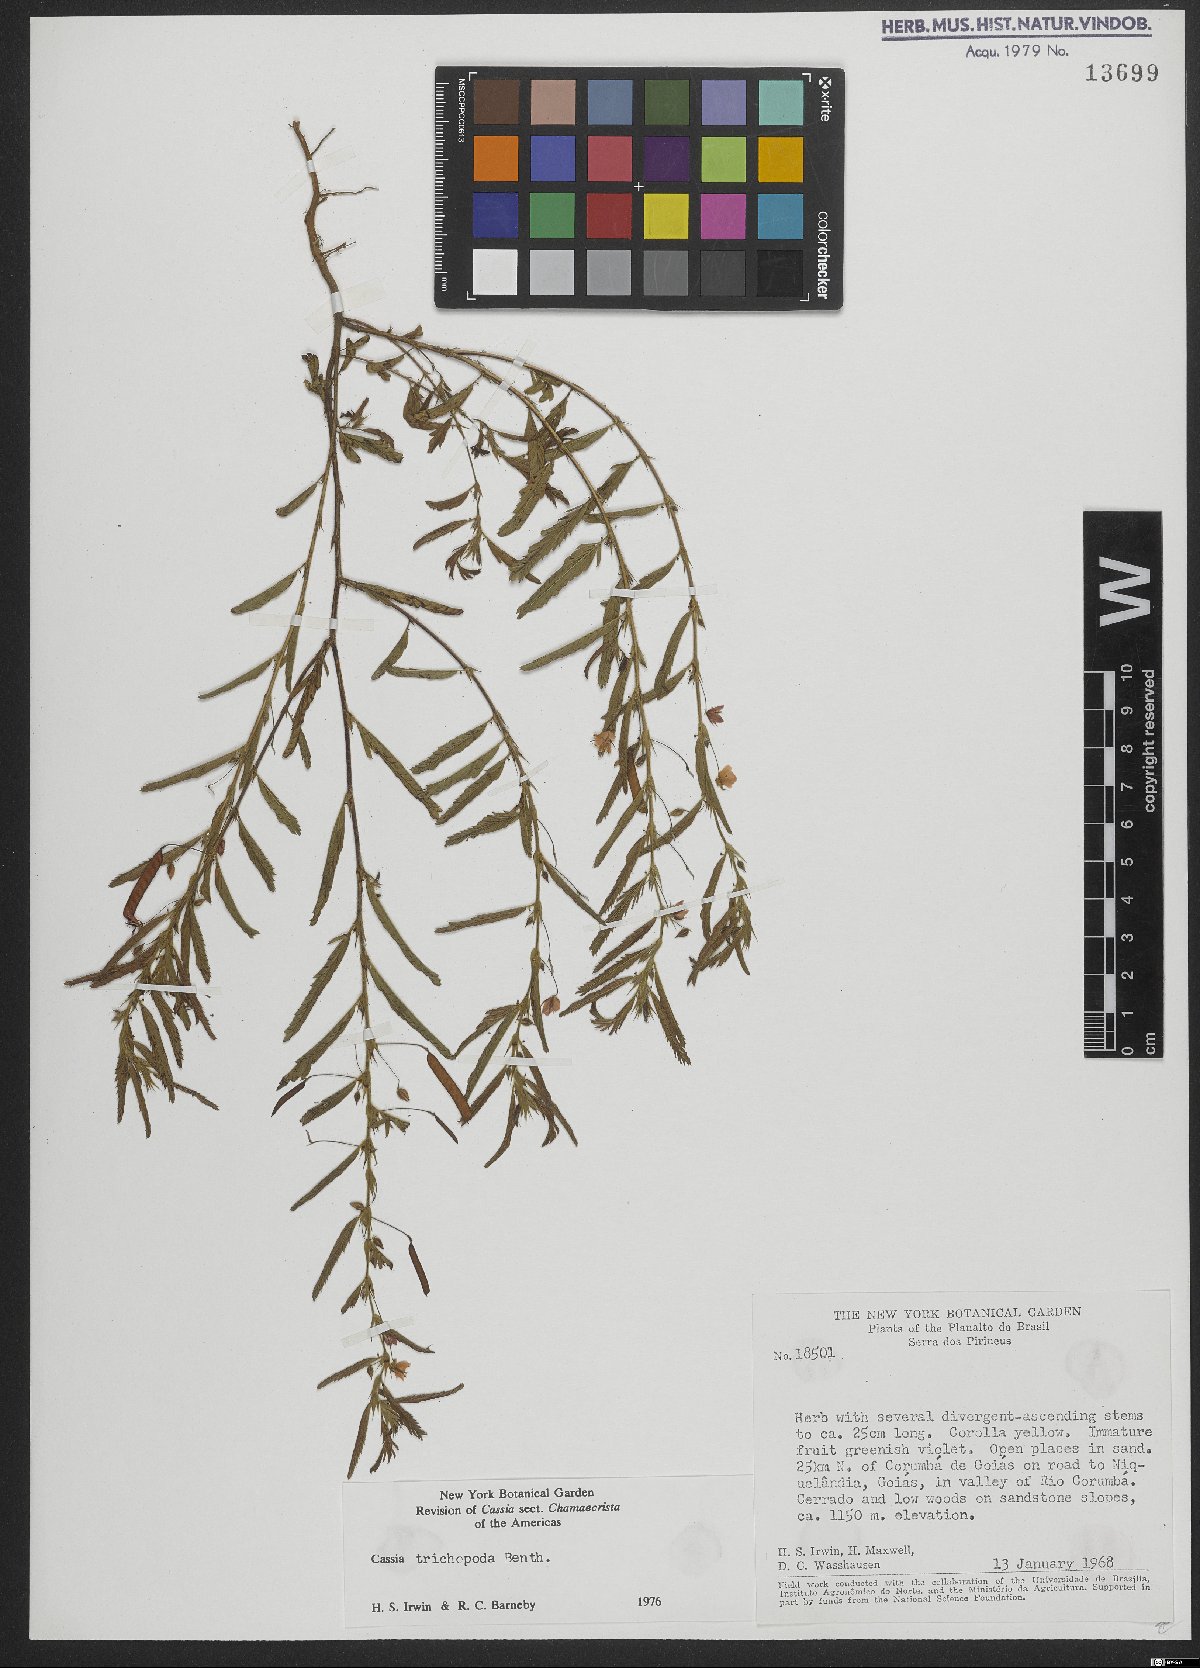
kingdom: Plantae
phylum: Tracheophyta
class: Magnoliopsida
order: Fabales
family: Fabaceae
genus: Chamaecrista
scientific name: Chamaecrista trichopoda
